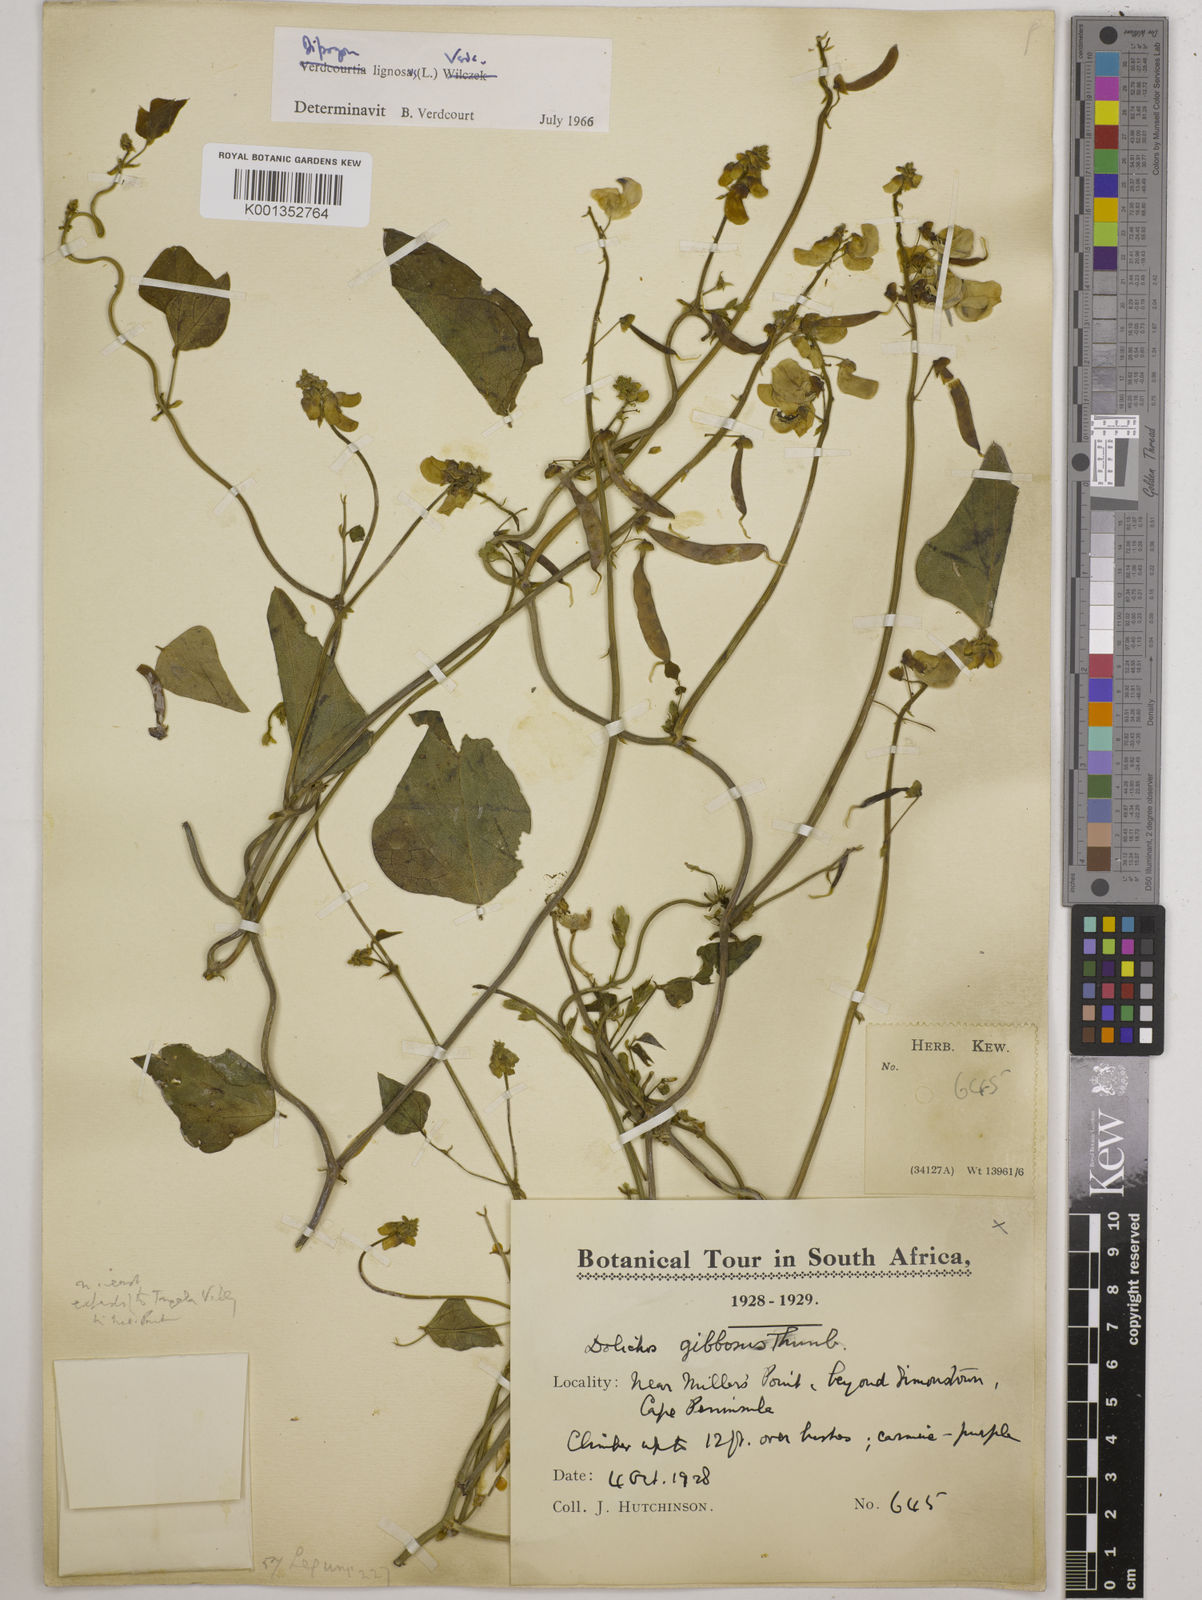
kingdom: Plantae
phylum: Tracheophyta
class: Magnoliopsida
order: Fabales
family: Fabaceae
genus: Dipogon
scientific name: Dipogon lignosus
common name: Okie bean
